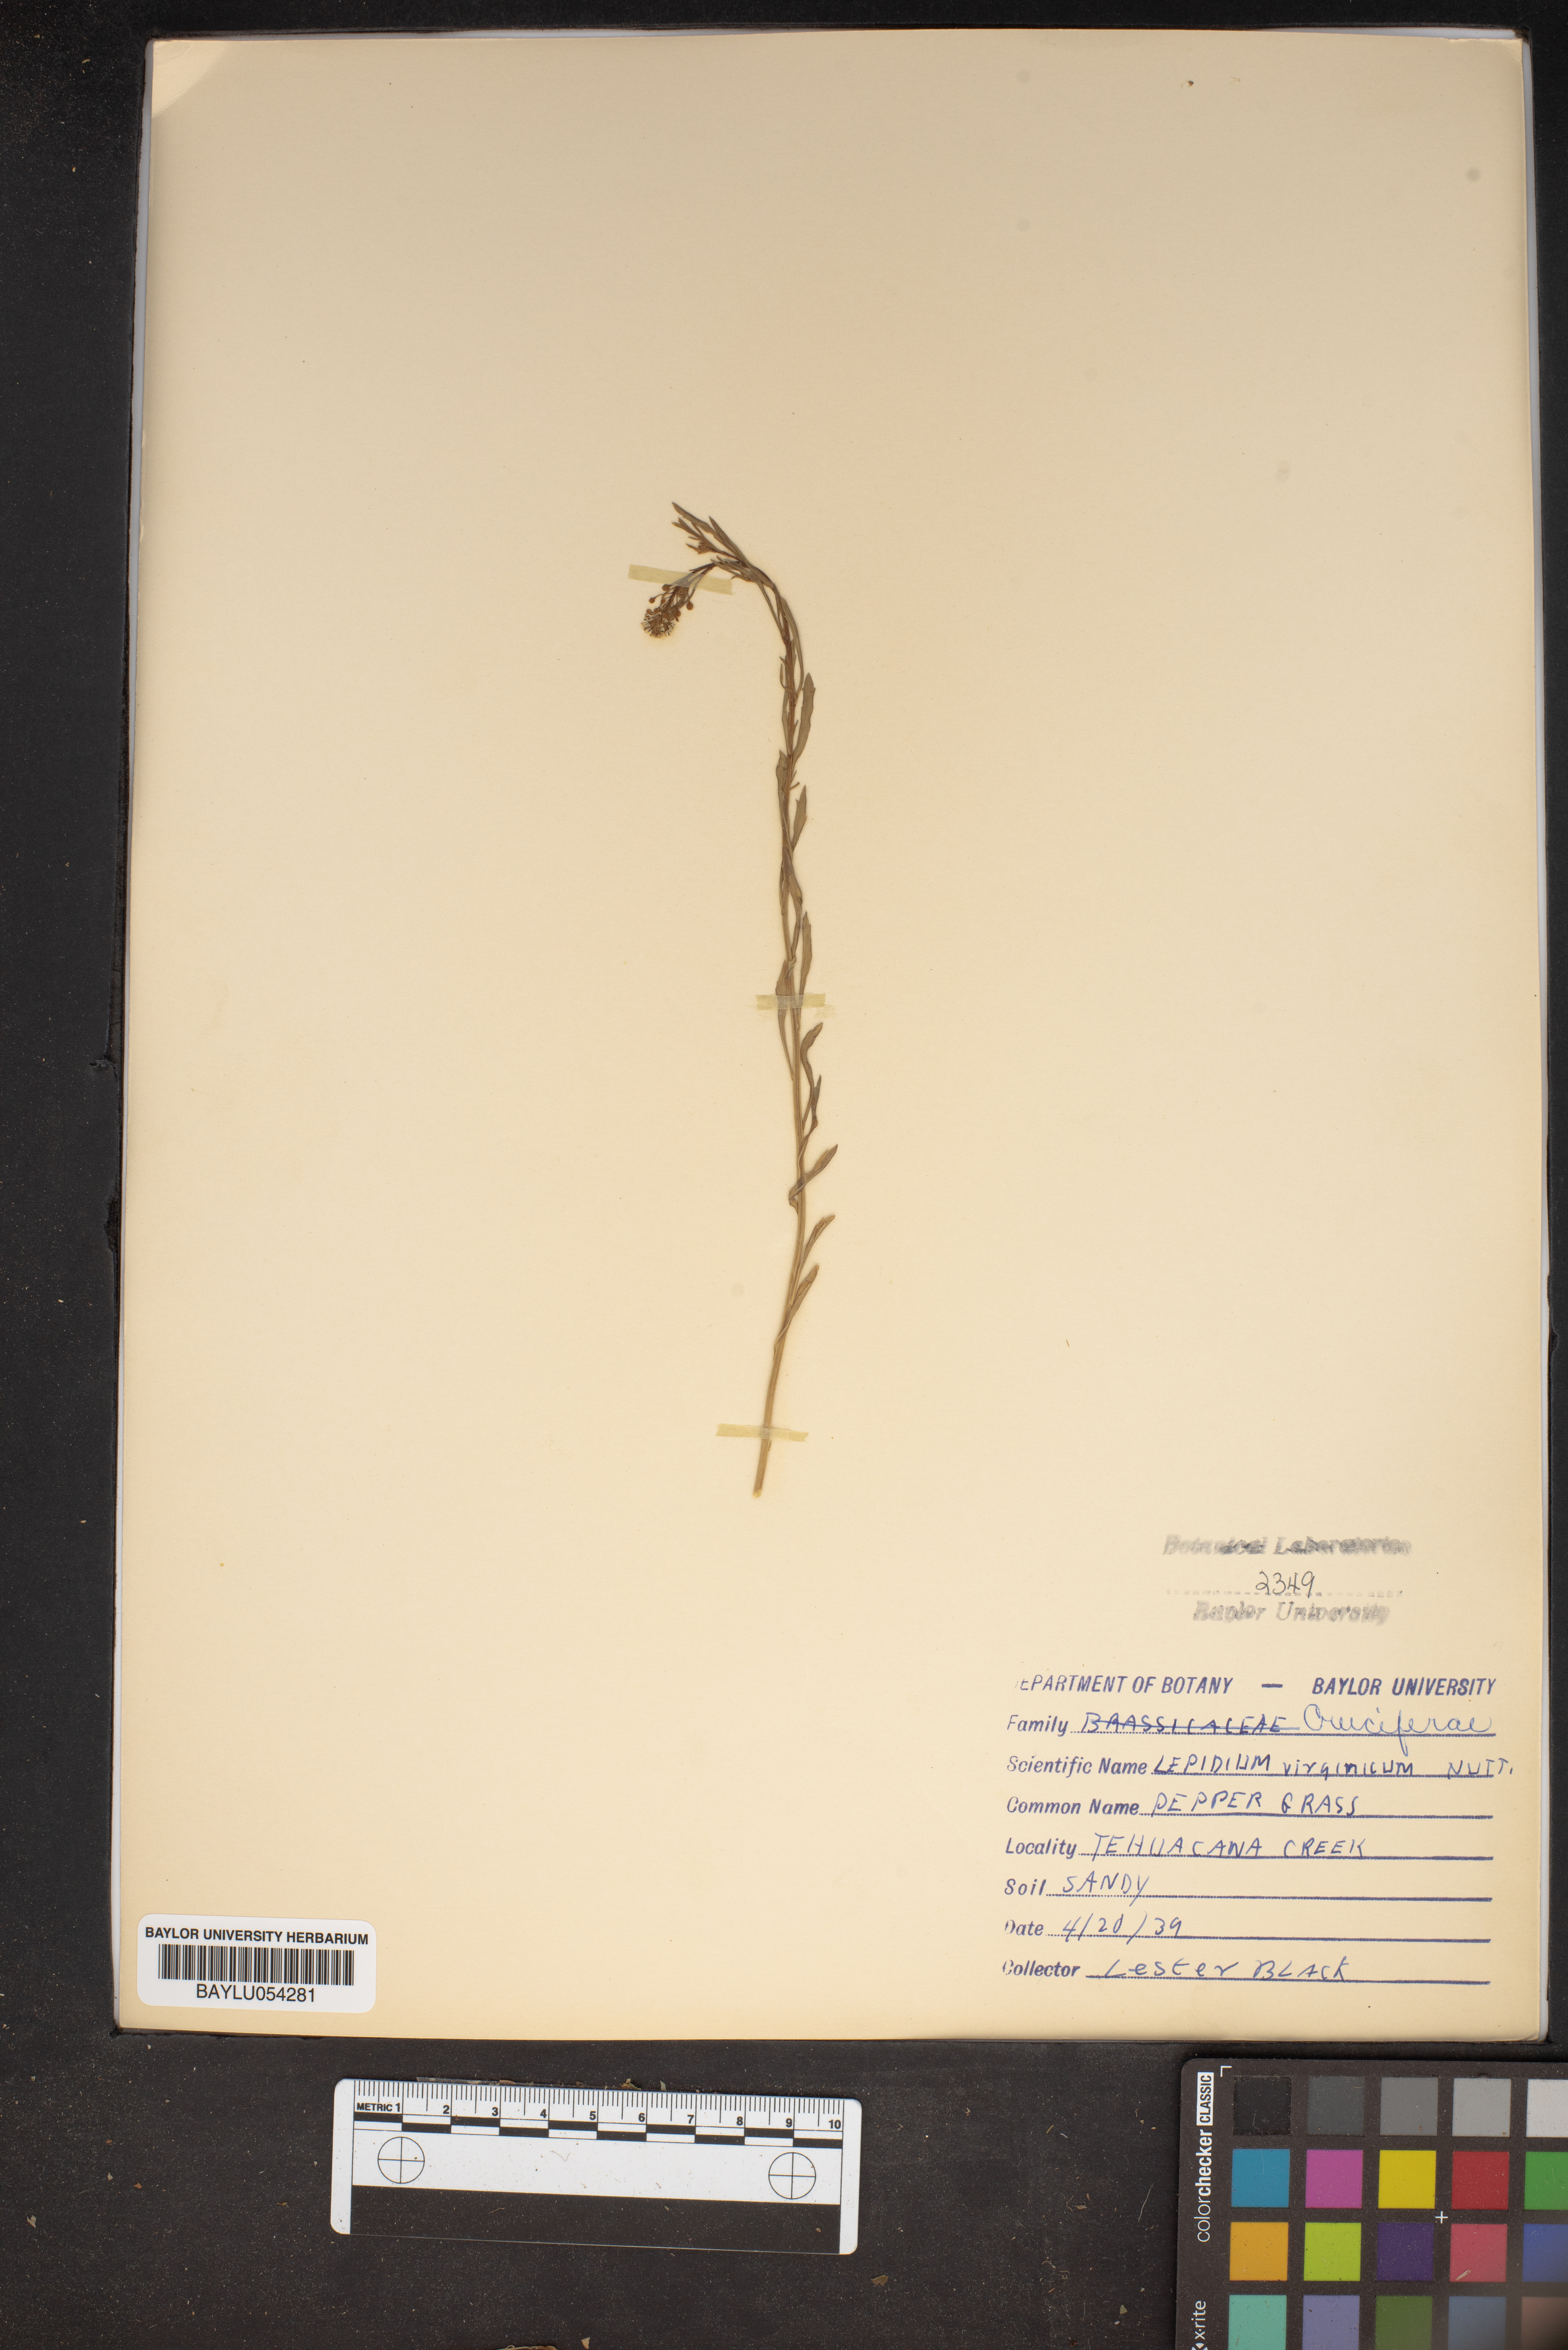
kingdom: Plantae
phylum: Tracheophyta
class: Magnoliopsida
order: Brassicales
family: Brassicaceae
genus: Lepidium
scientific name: Lepidium virginicum
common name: Least pepperwort
